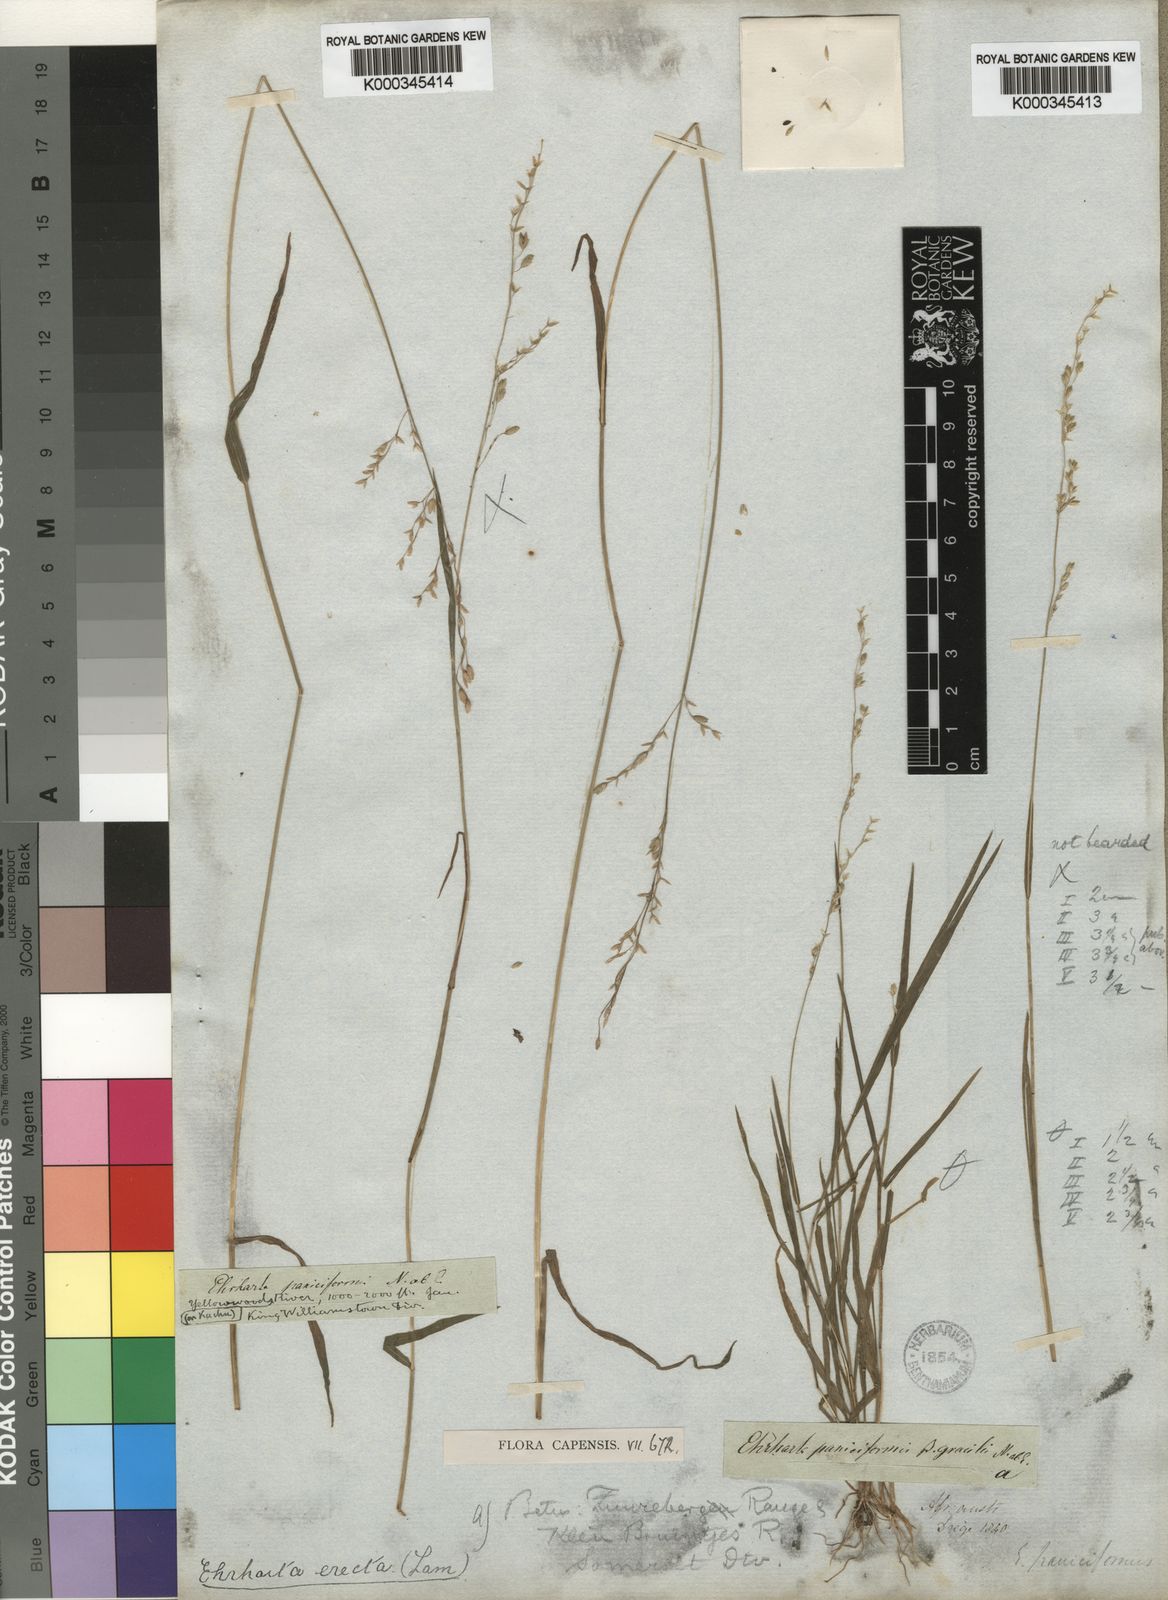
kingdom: Plantae
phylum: Tracheophyta
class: Liliopsida
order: Poales
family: Poaceae
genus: Ehrharta
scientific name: Ehrharta erecta
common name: Panic veldtgrass
